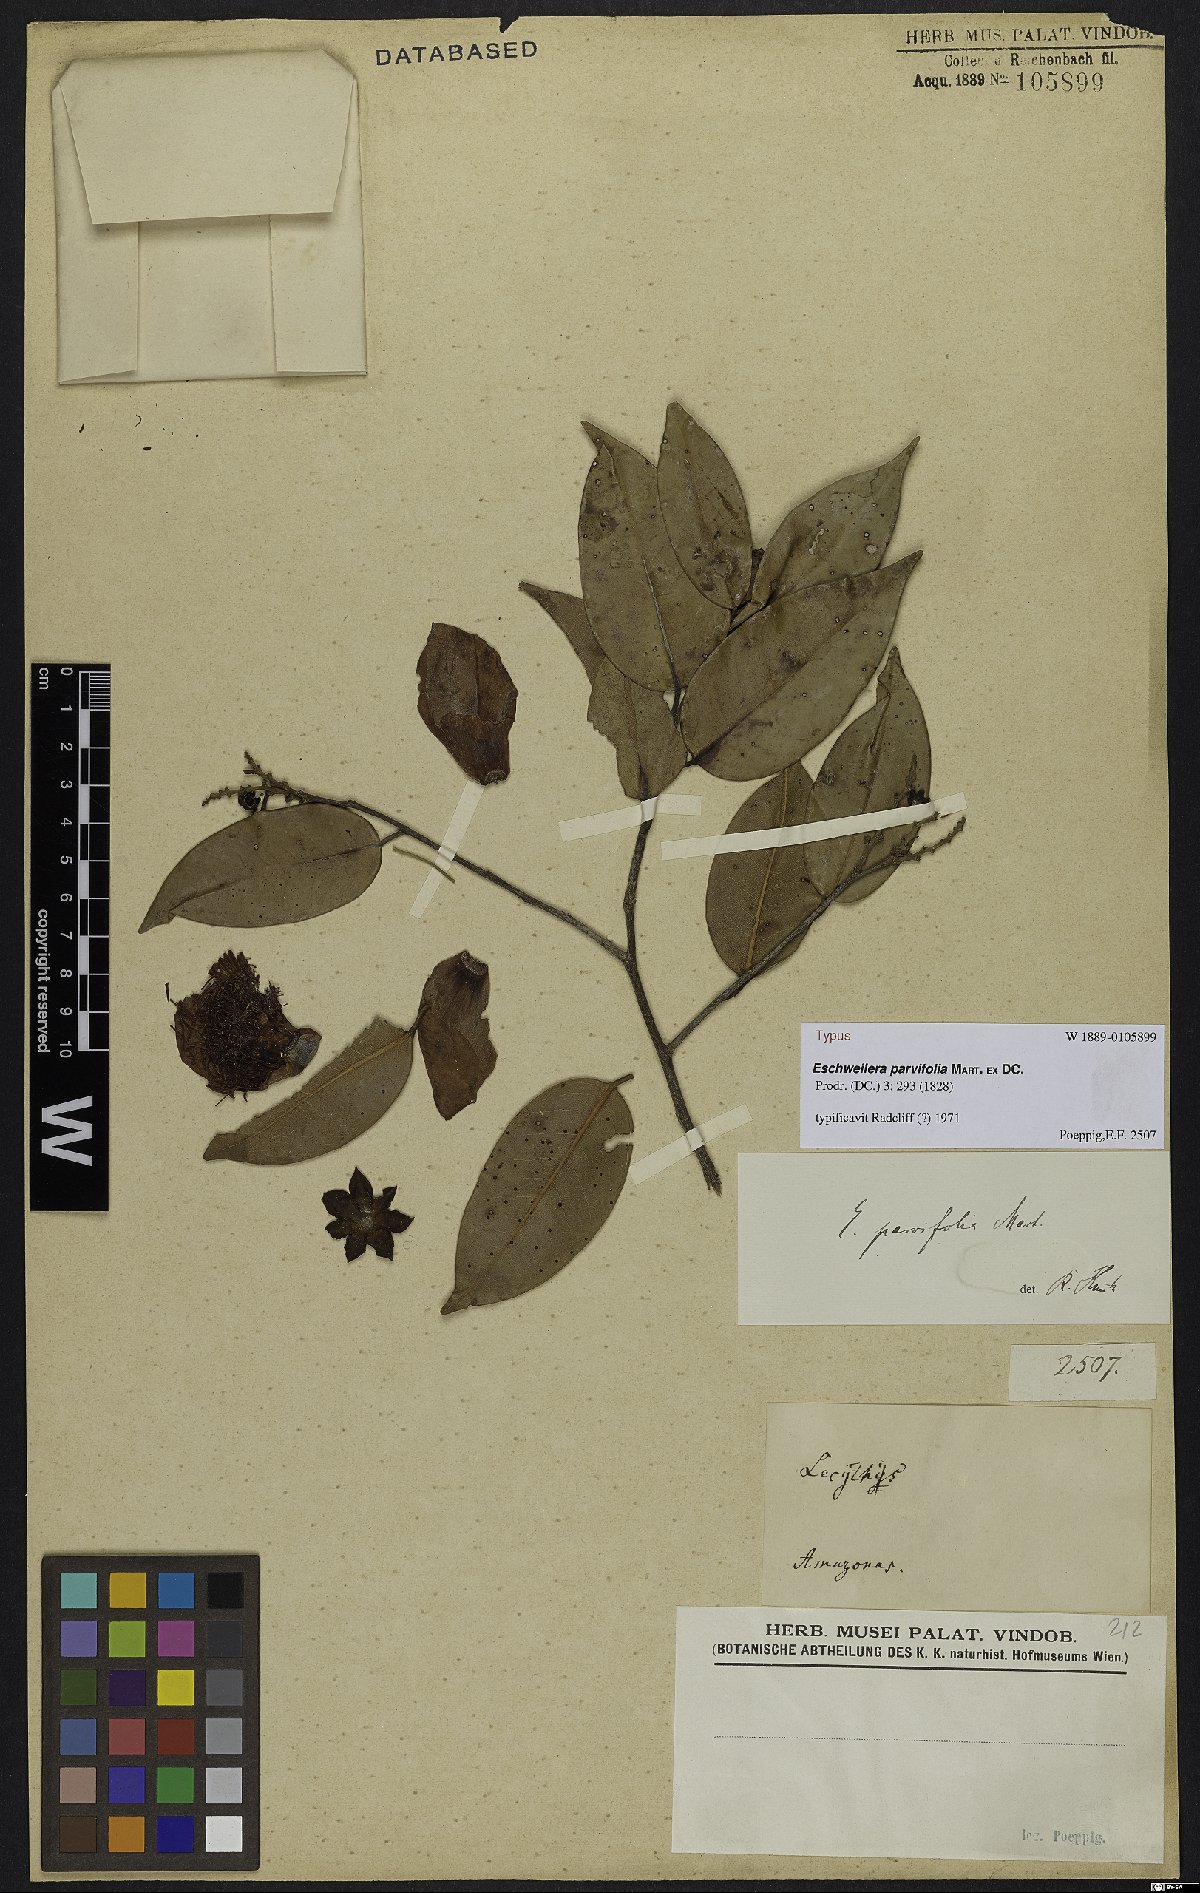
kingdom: Plantae
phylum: Tracheophyta
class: Magnoliopsida
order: Ericales
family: Lecythidaceae
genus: Eschweilera
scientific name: Eschweilera parvifolia
